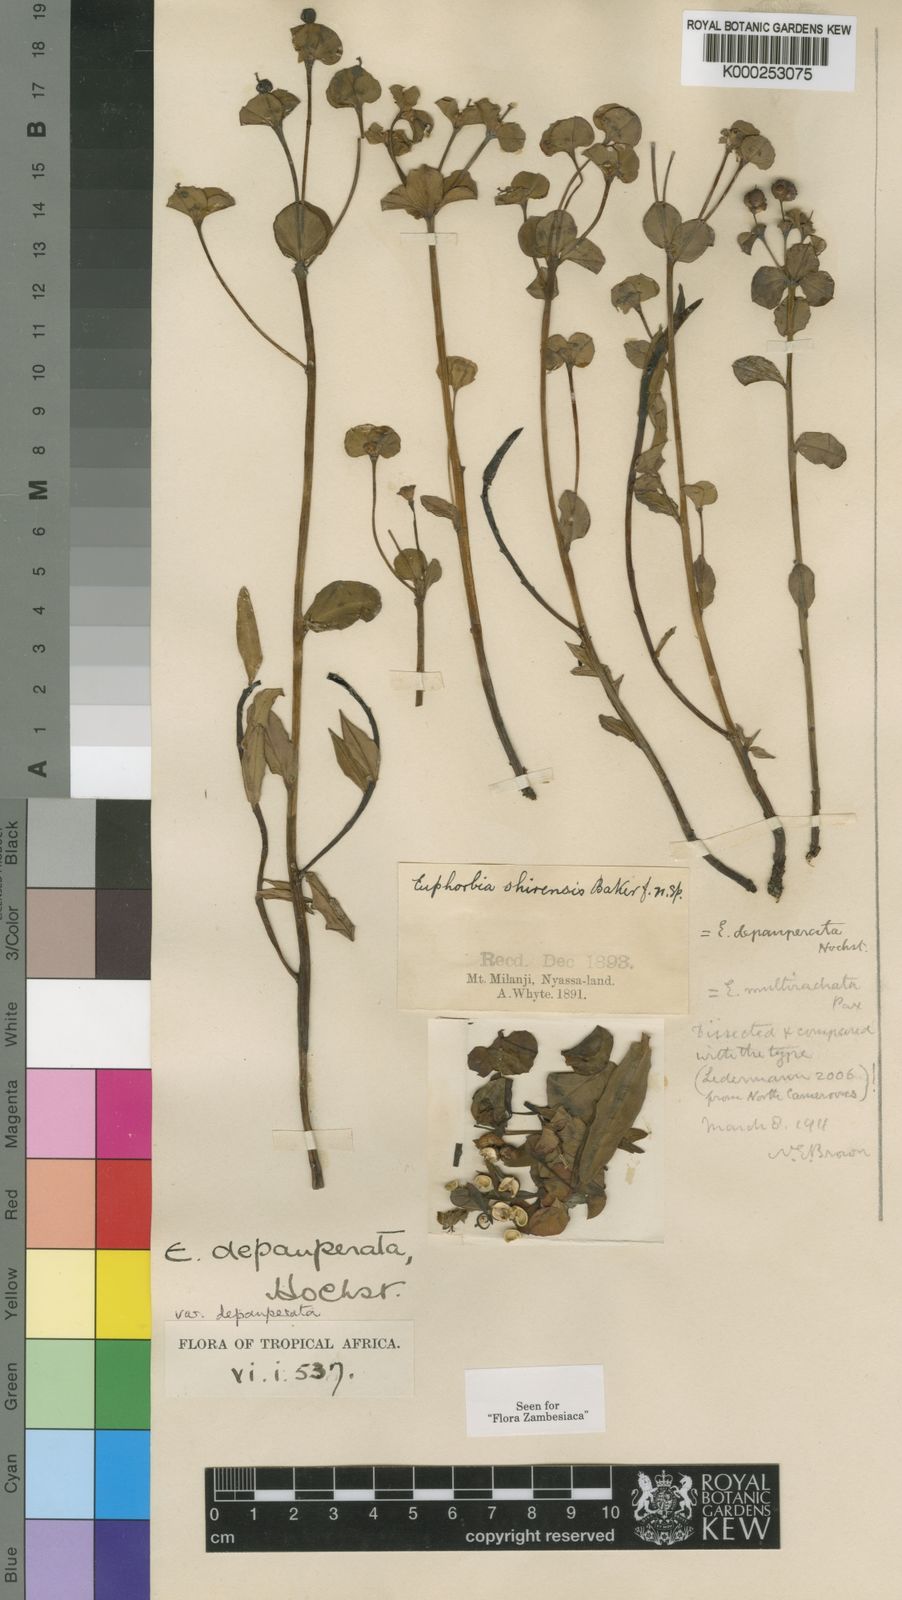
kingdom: Plantae
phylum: Tracheophyta
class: Magnoliopsida
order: Malpighiales
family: Euphorbiaceae
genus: Euphorbia
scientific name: Euphorbia depauperata
